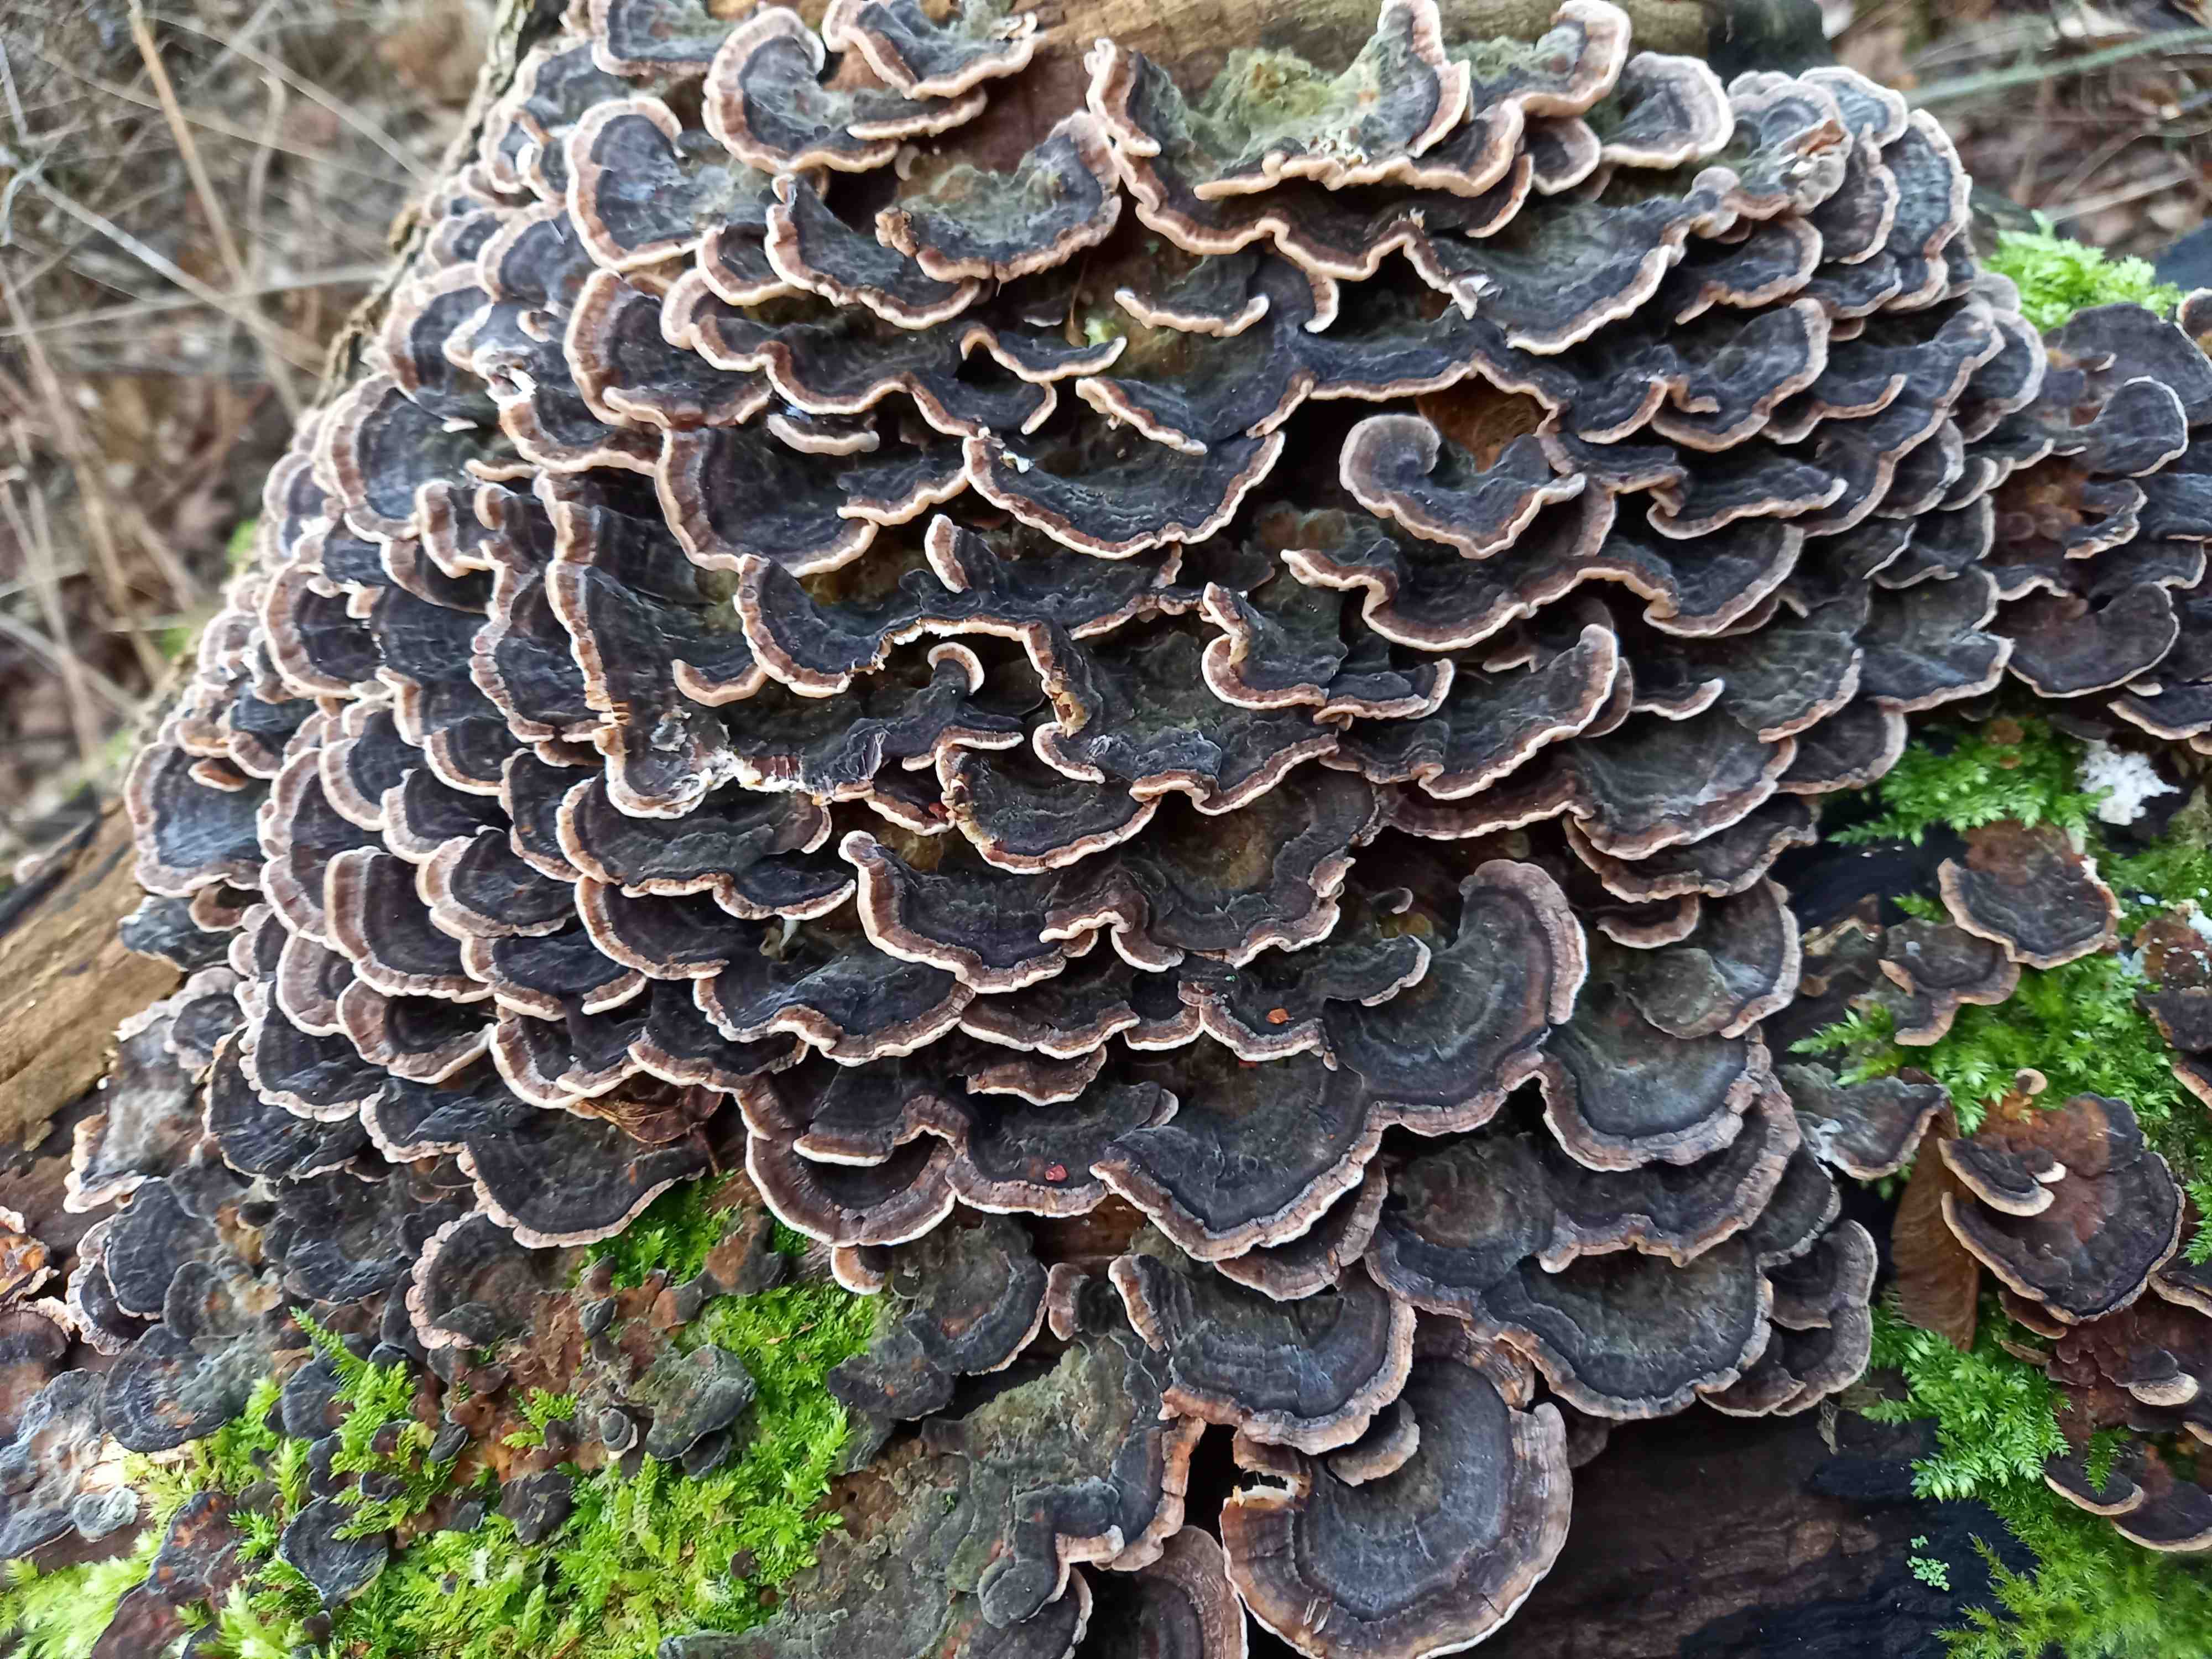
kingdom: Fungi
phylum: Basidiomycota
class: Agaricomycetes
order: Polyporales
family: Polyporaceae
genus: Trametes
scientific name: Trametes versicolor
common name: broget læderporesvamp
